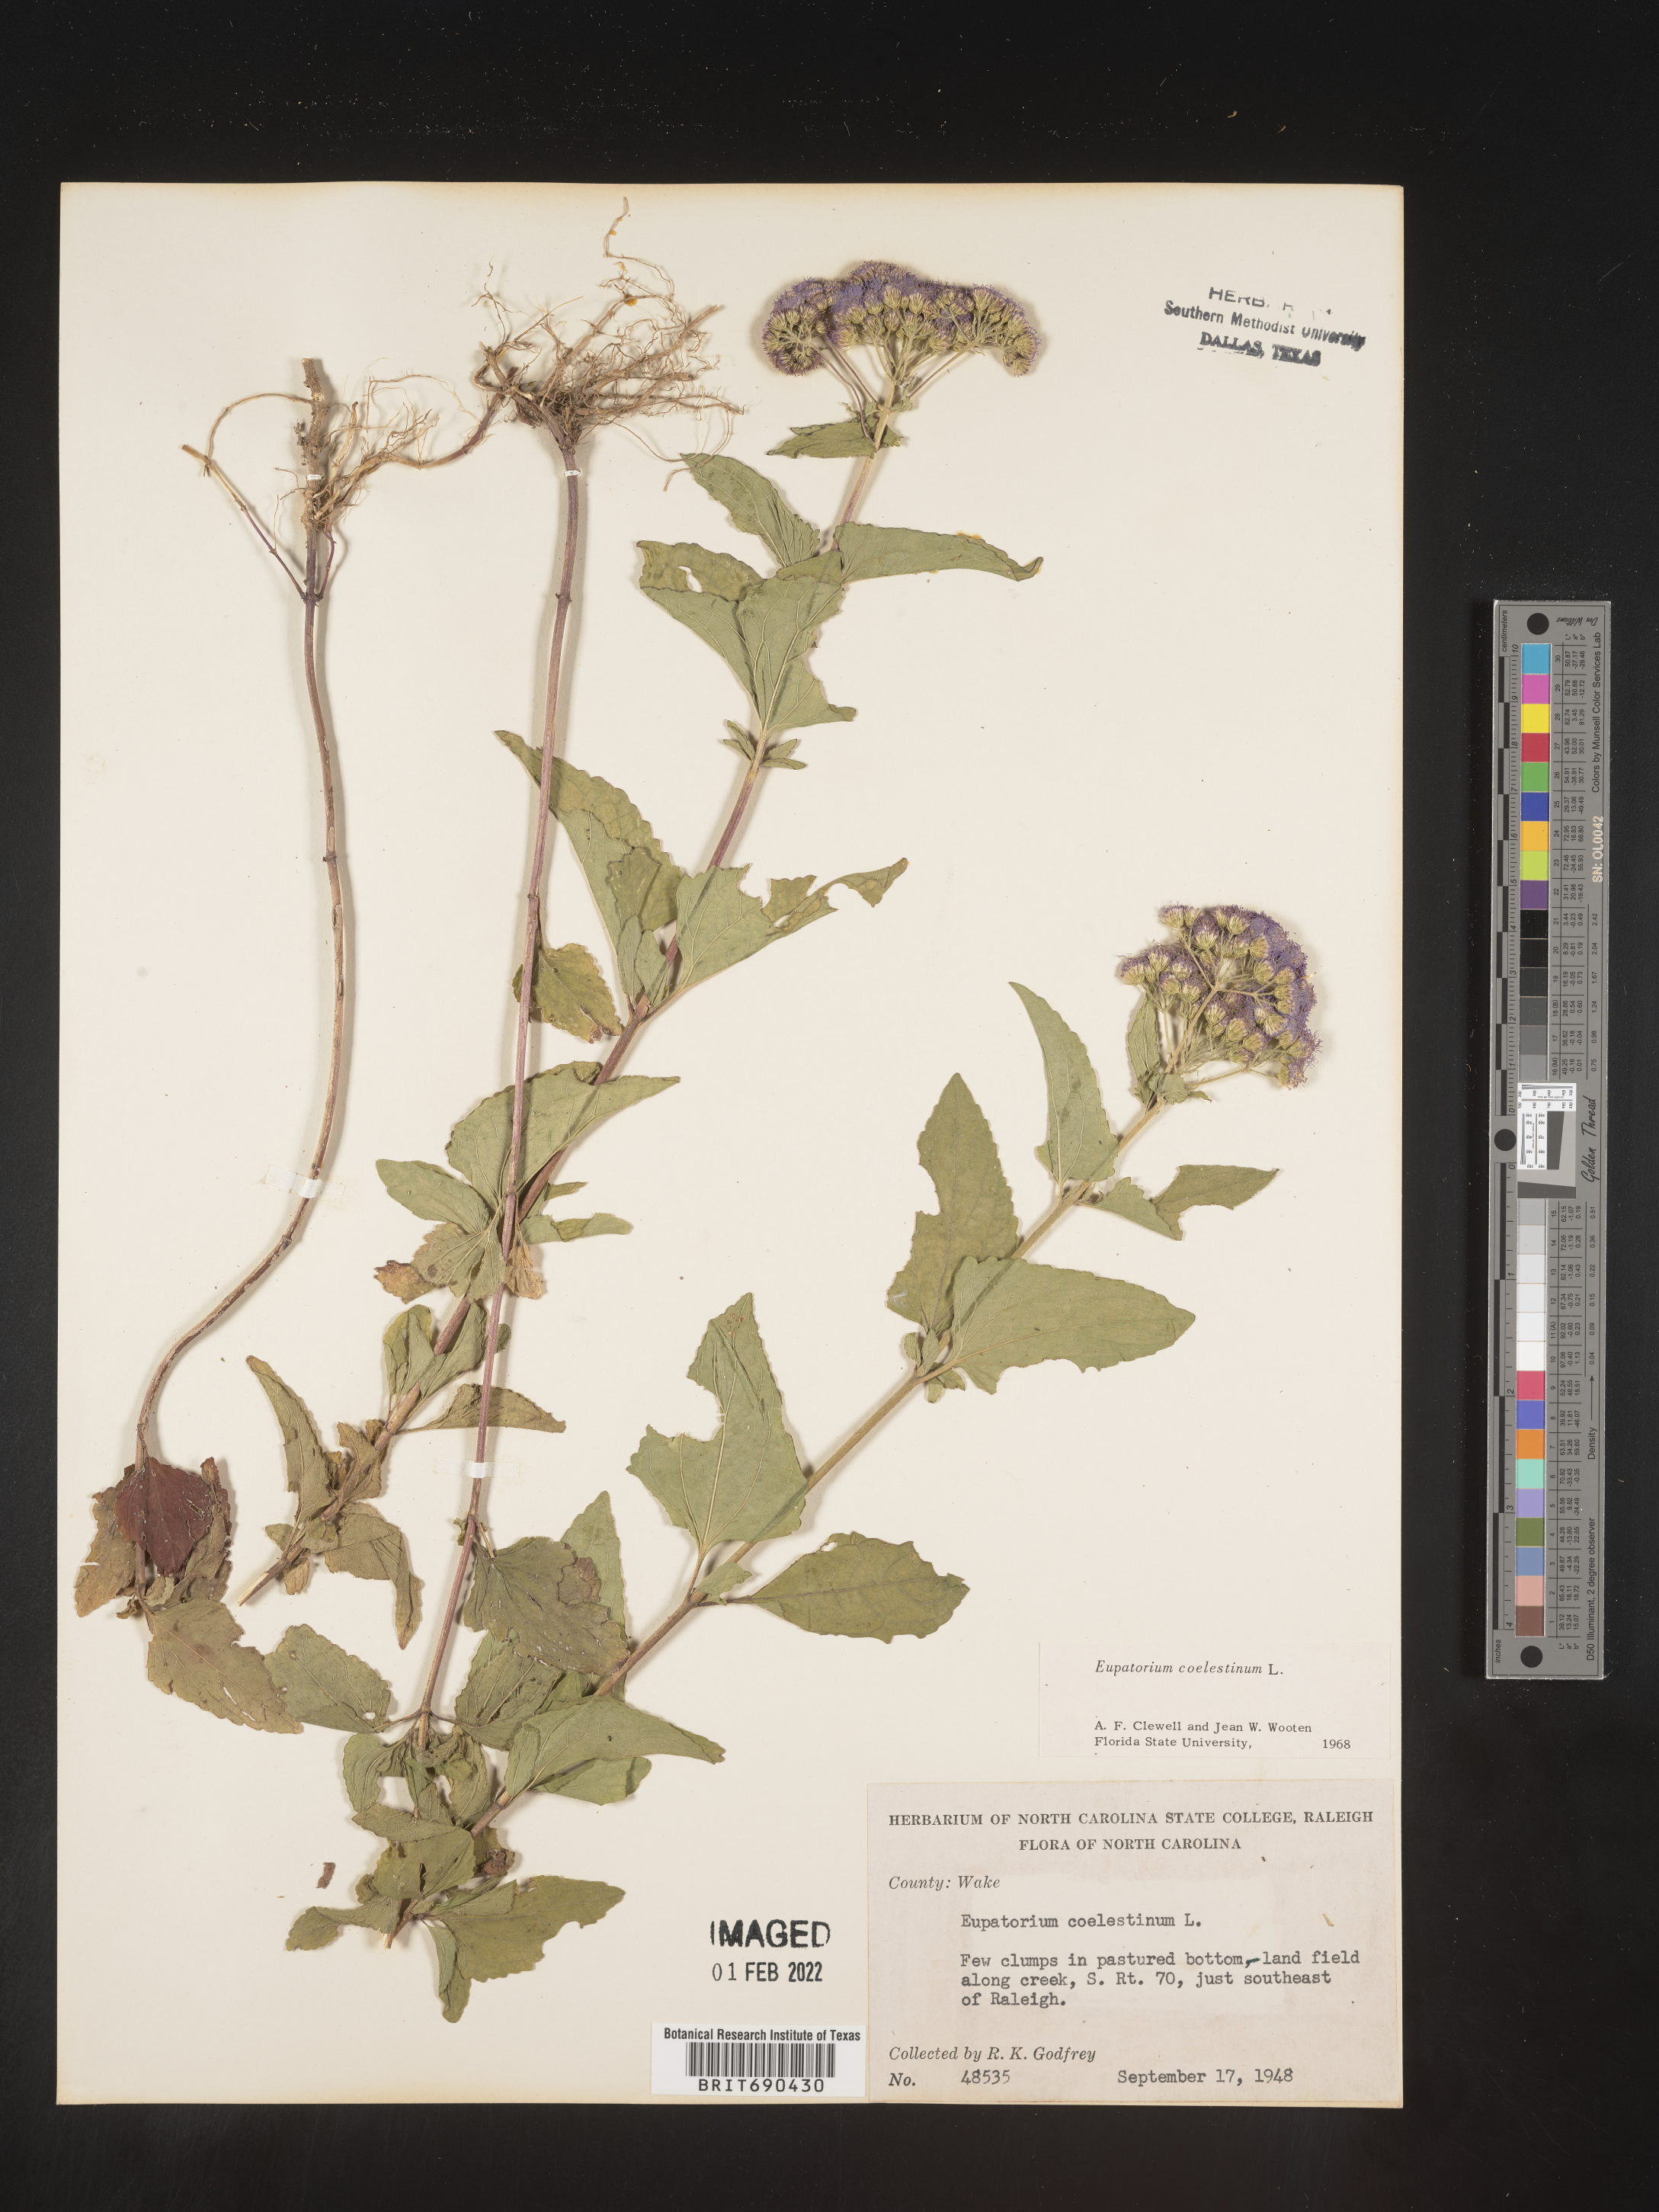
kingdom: Plantae
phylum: Tracheophyta
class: Magnoliopsida
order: Asterales
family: Asteraceae
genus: Conoclinium
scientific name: Conoclinium coelestinum
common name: Blue mistflower
